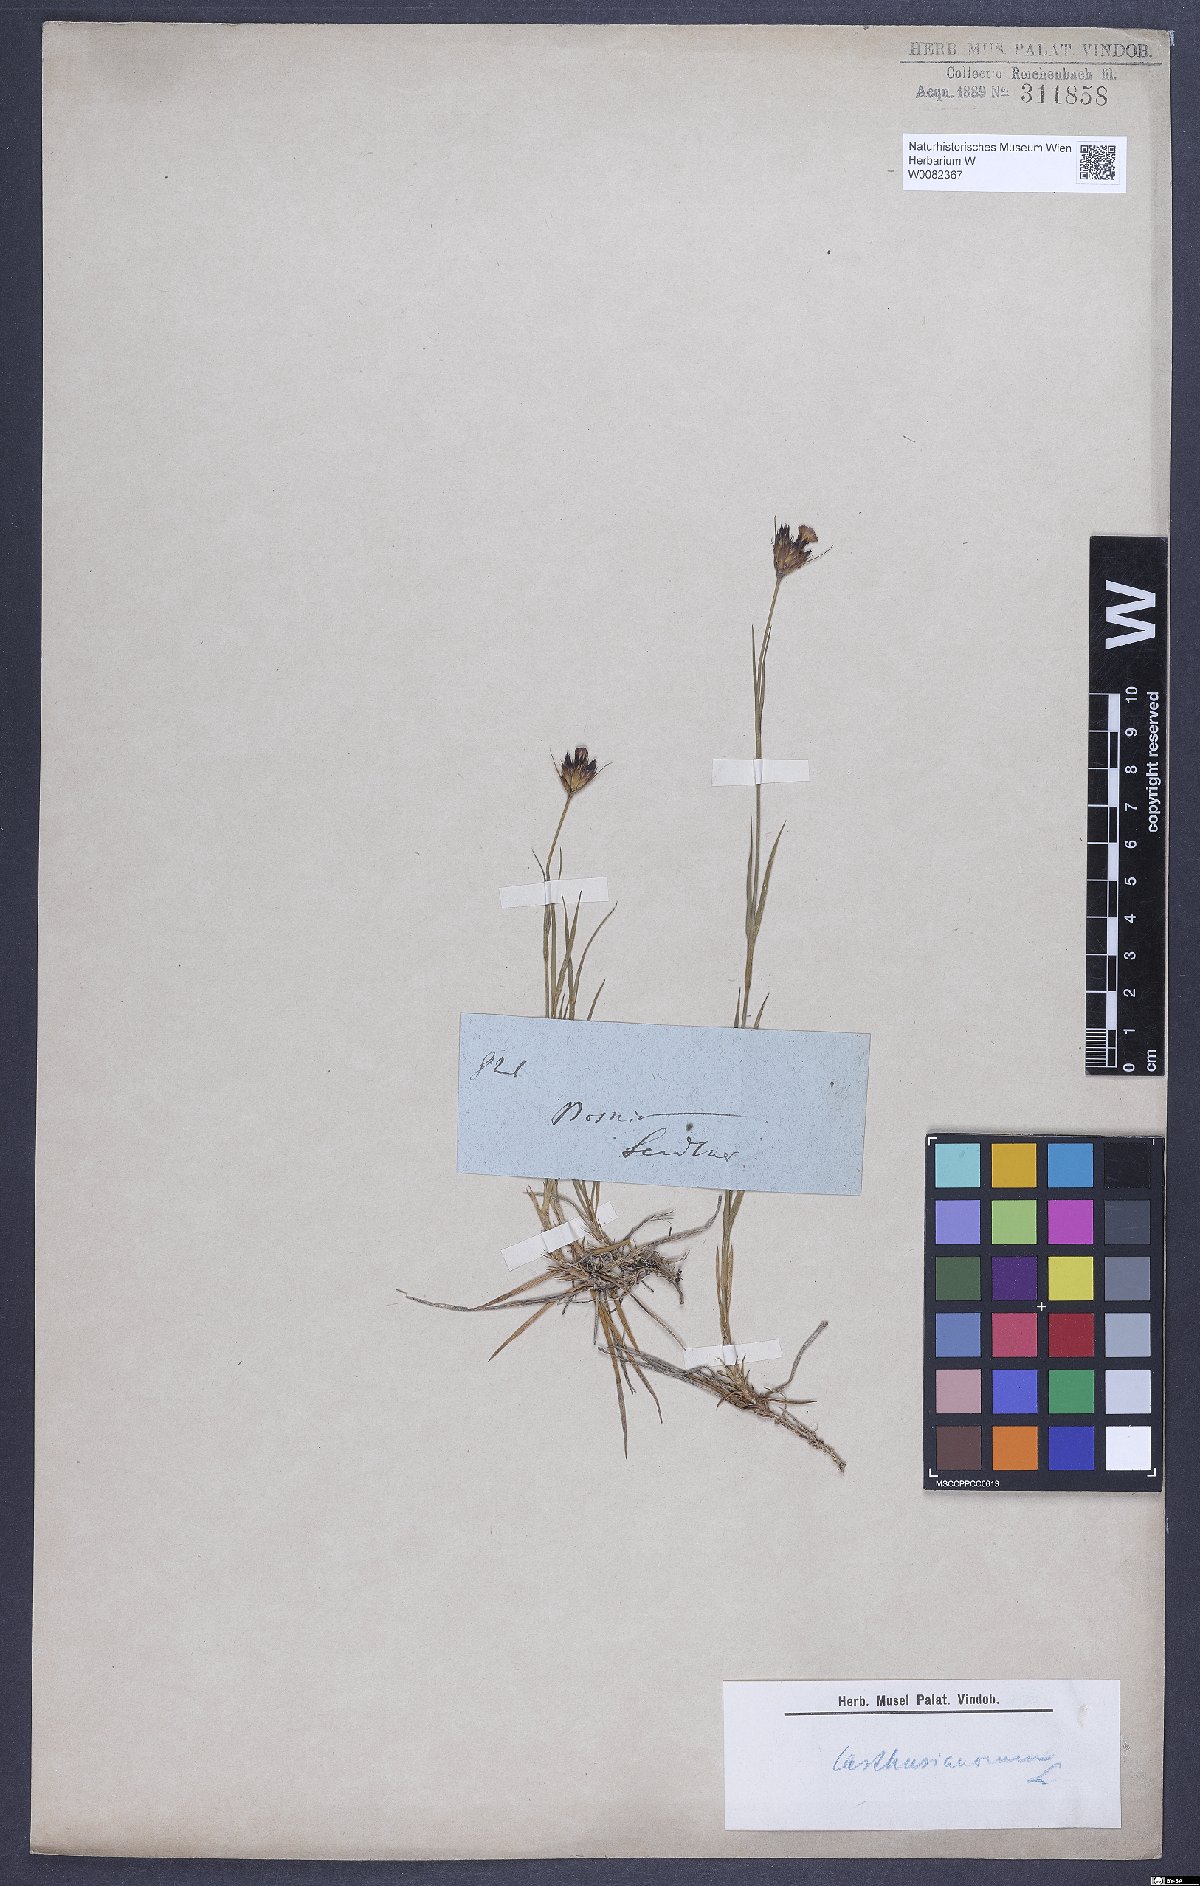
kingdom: Plantae
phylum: Tracheophyta
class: Magnoliopsida
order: Caryophyllales
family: Caryophyllaceae
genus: Dianthus
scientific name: Dianthus carthusianorum
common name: Carthusian pink
